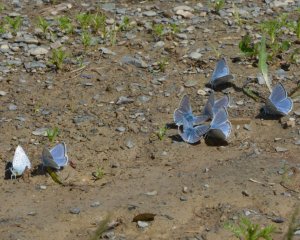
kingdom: Animalia
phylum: Arthropoda
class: Insecta
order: Lepidoptera
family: Lycaenidae
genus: Plebejus
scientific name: Plebejus saepiolus
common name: Greenish Blue
